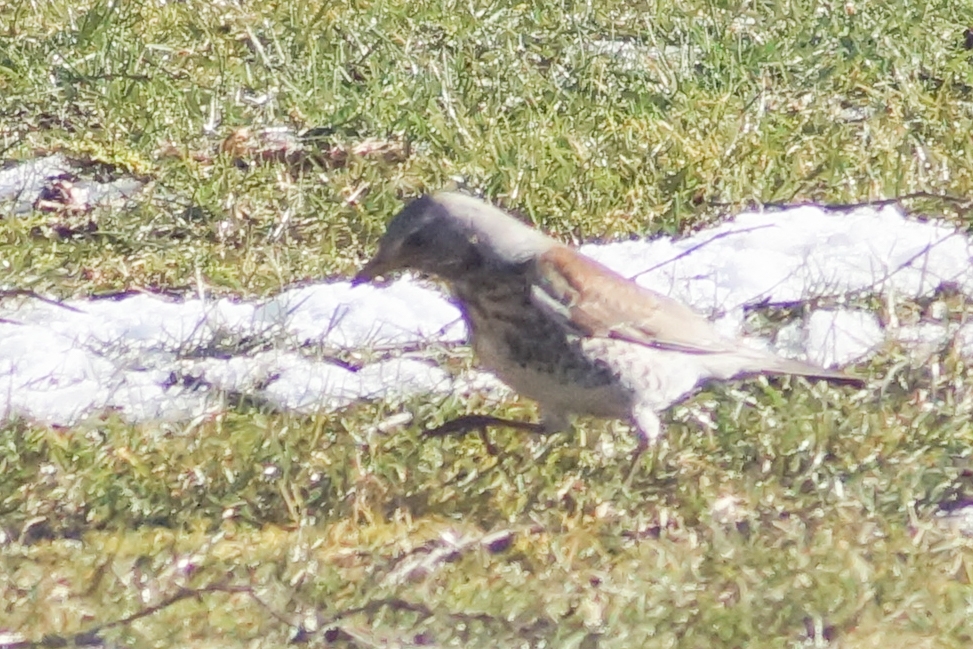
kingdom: Animalia
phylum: Chordata
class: Aves
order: Passeriformes
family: Turdidae
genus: Turdus
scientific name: Turdus pilaris
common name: Sjagger
